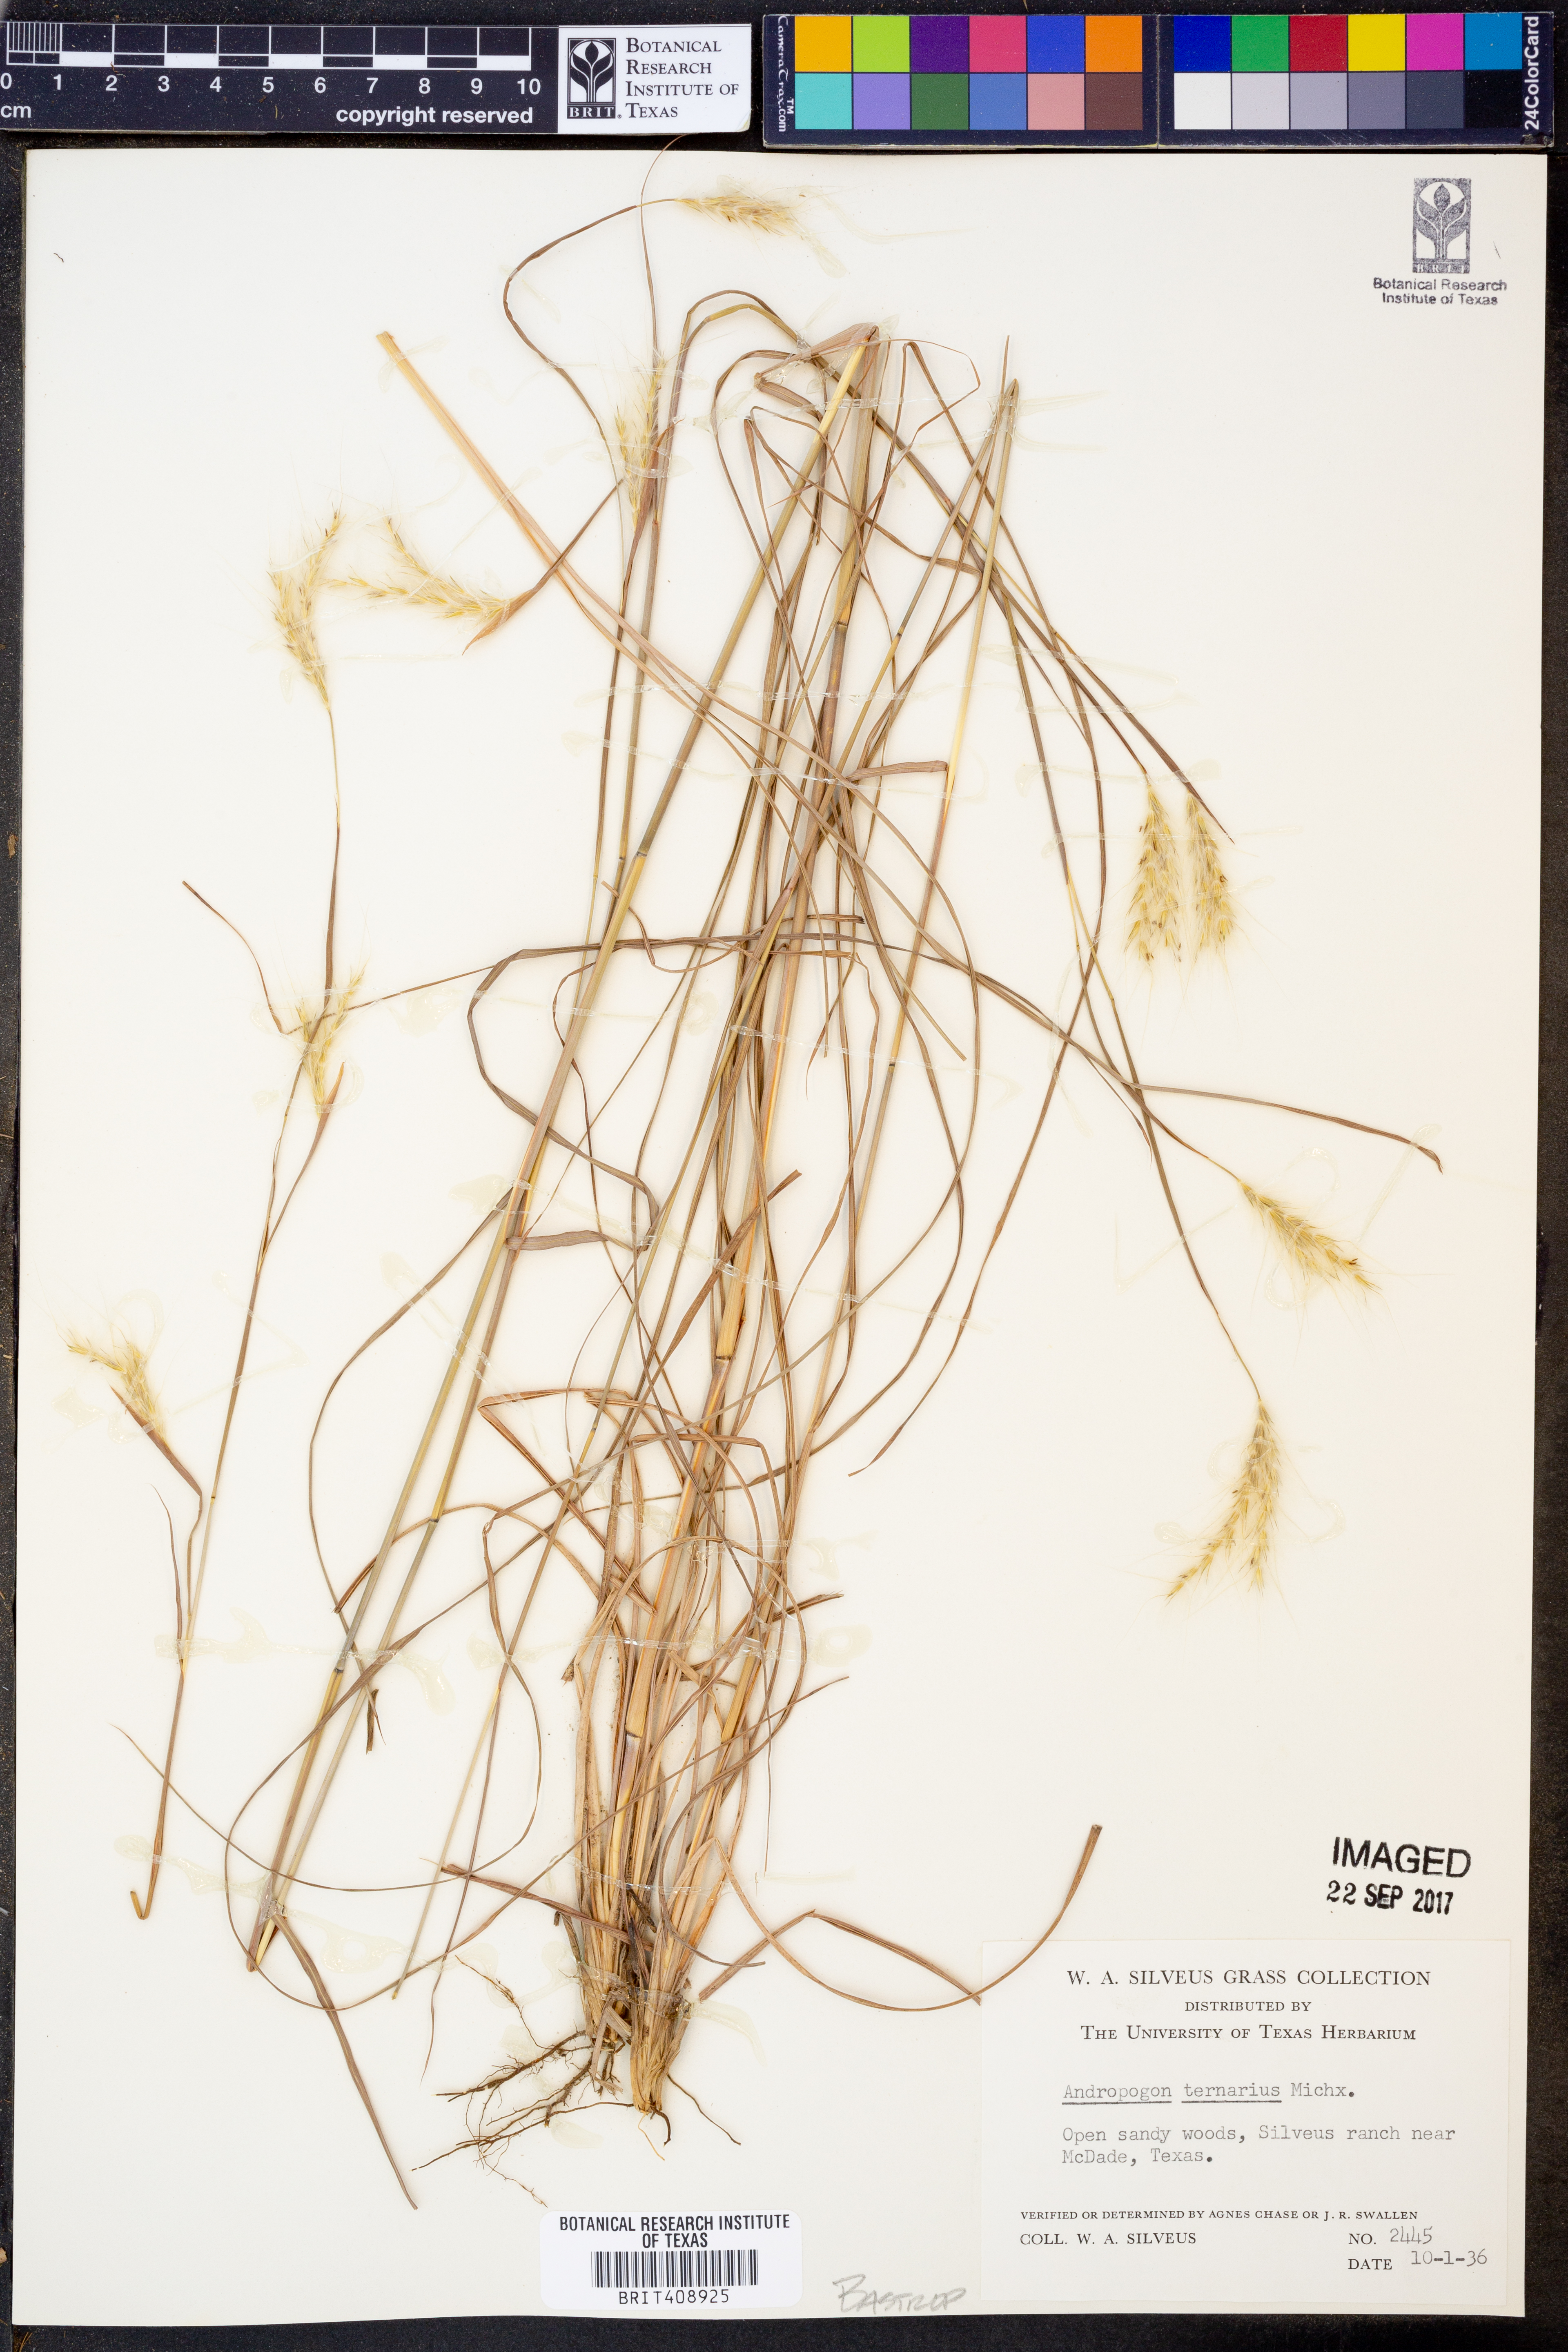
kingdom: Plantae
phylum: Tracheophyta
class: Liliopsida
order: Poales
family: Poaceae
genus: Andropogon
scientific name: Andropogon ternarius
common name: Split bluestem
